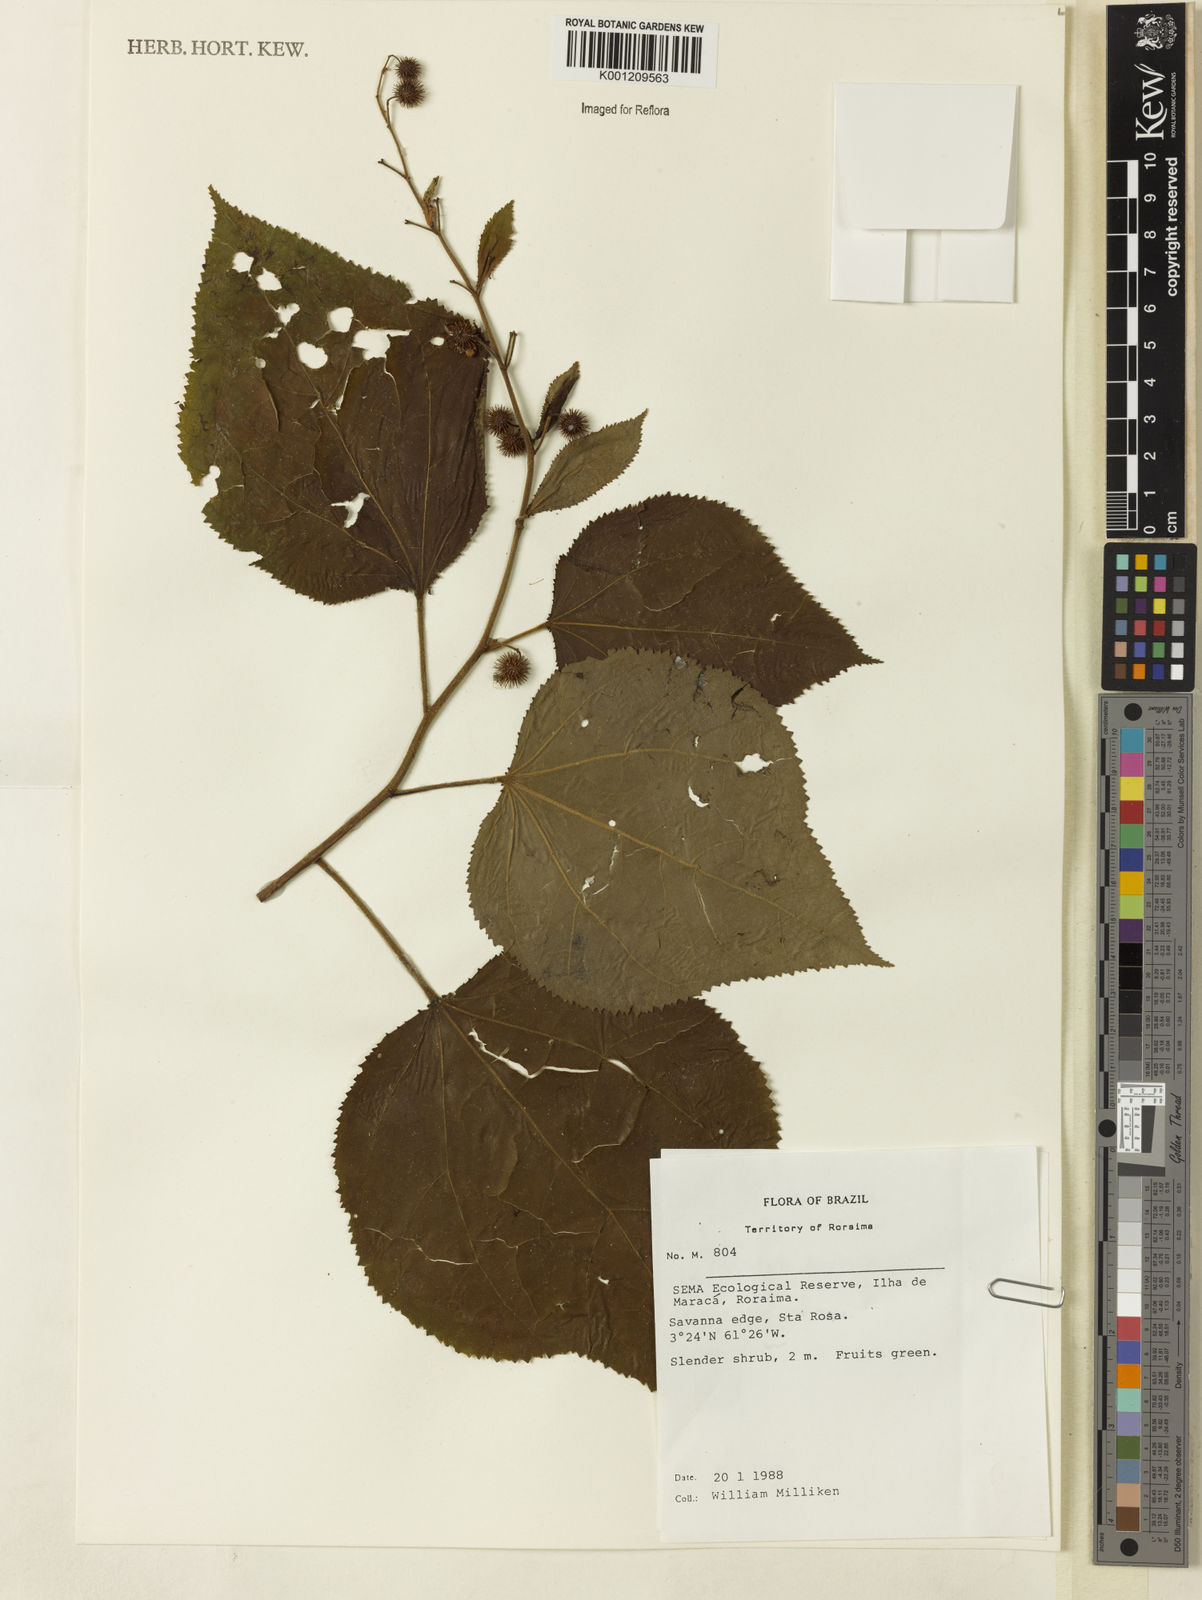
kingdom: Plantae
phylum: Tracheophyta
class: Magnoliopsida
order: Malvales
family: Malvaceae
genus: Triumfetta
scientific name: Triumfetta lappula
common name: Burbark
